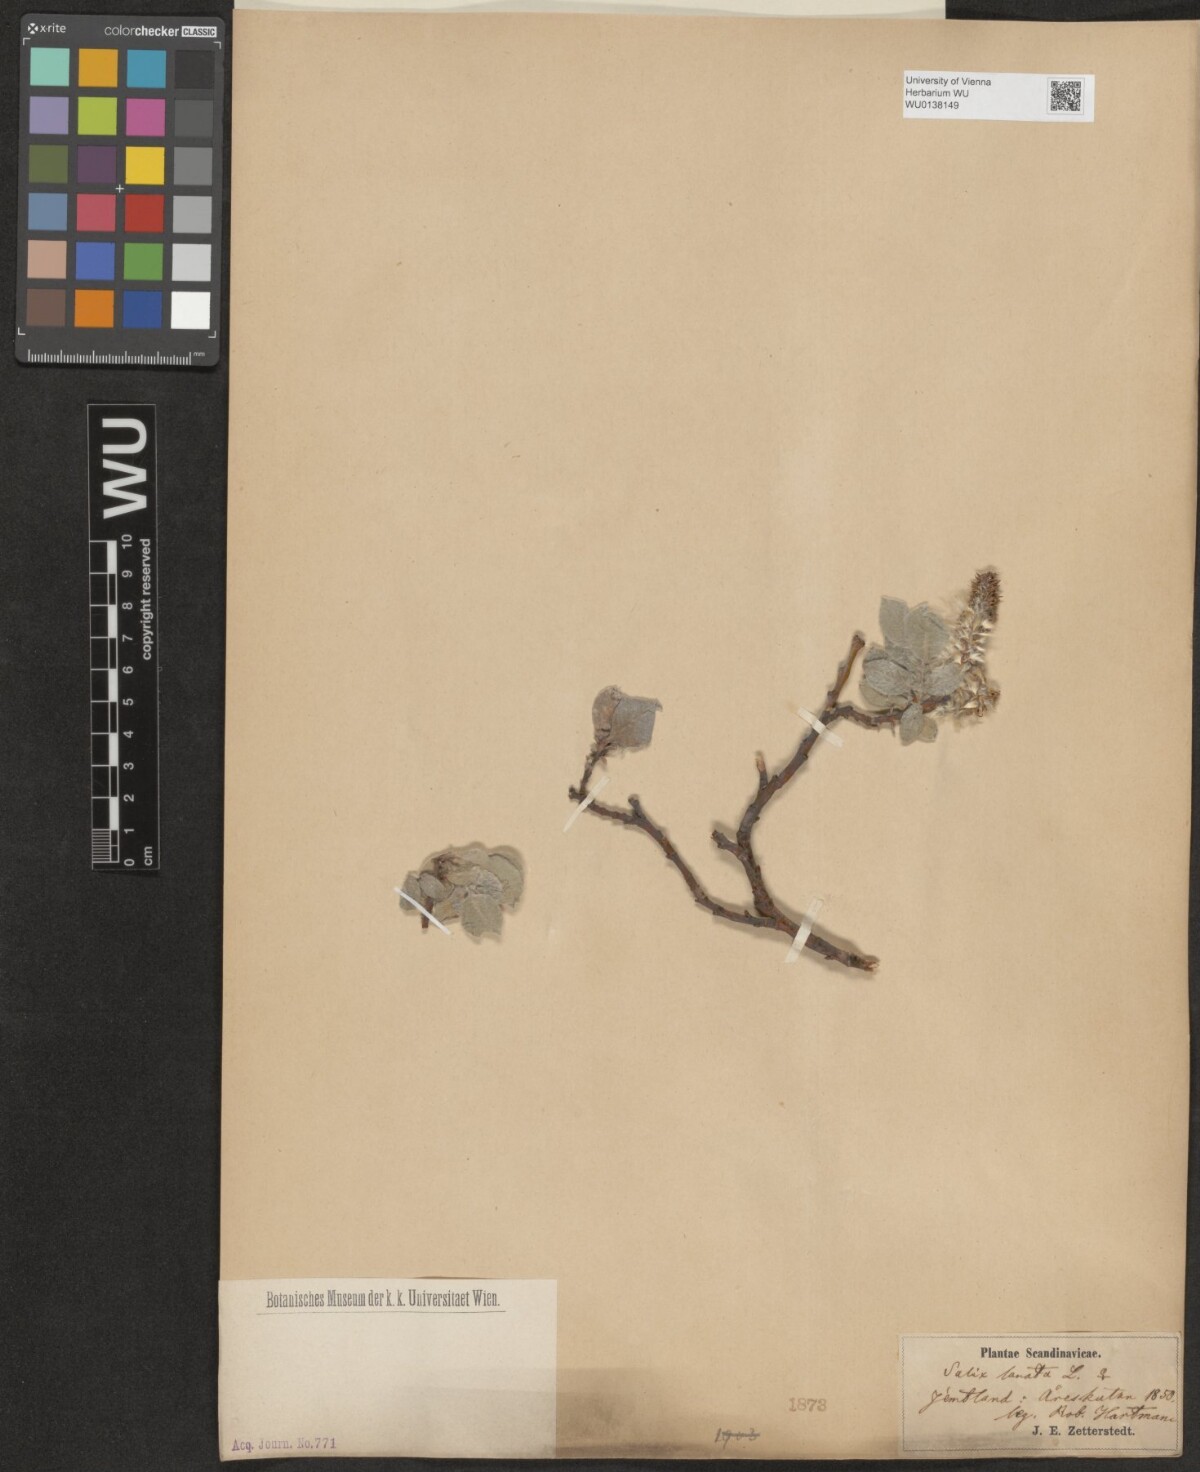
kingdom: Plantae
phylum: Tracheophyta
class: Magnoliopsida
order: Malpighiales
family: Salicaceae
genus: Salix
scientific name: Salix lanata
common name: Woolly willow
